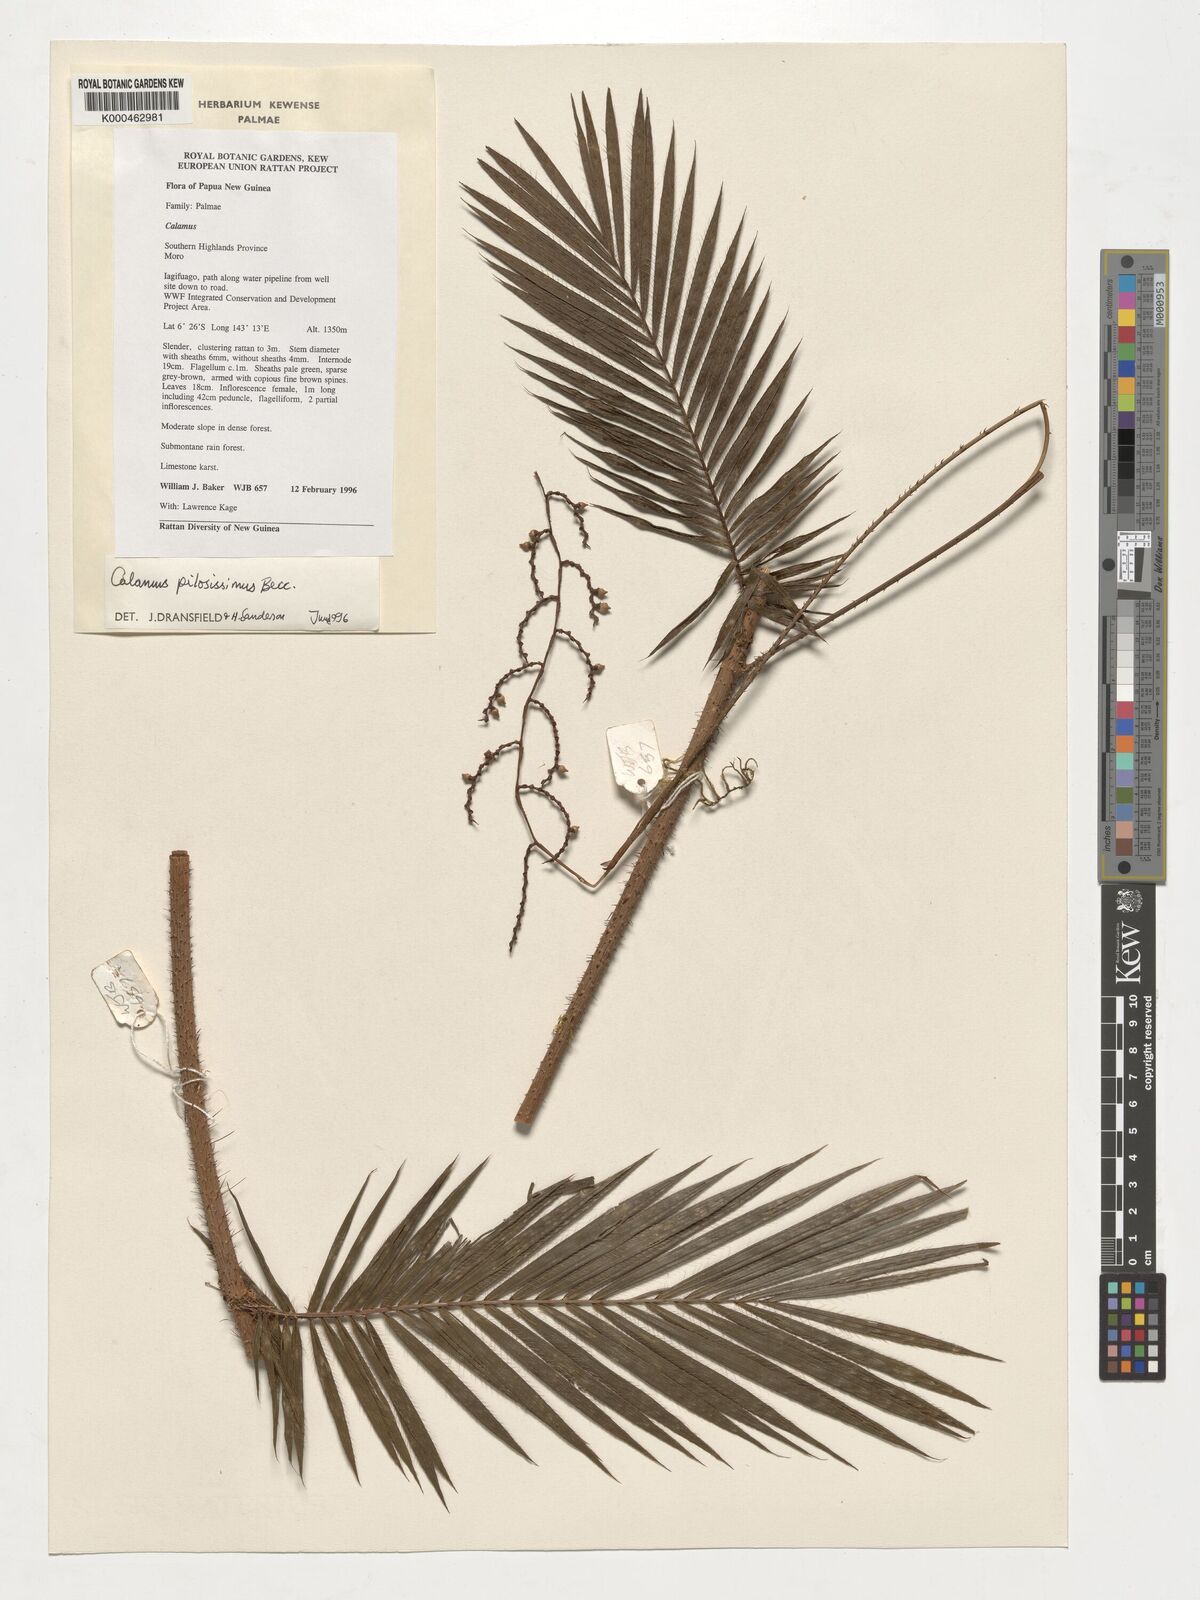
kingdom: Plantae
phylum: Tracheophyta
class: Liliopsida
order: Arecales
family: Arecaceae
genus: Calamus
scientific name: Calamus pilosissimus
